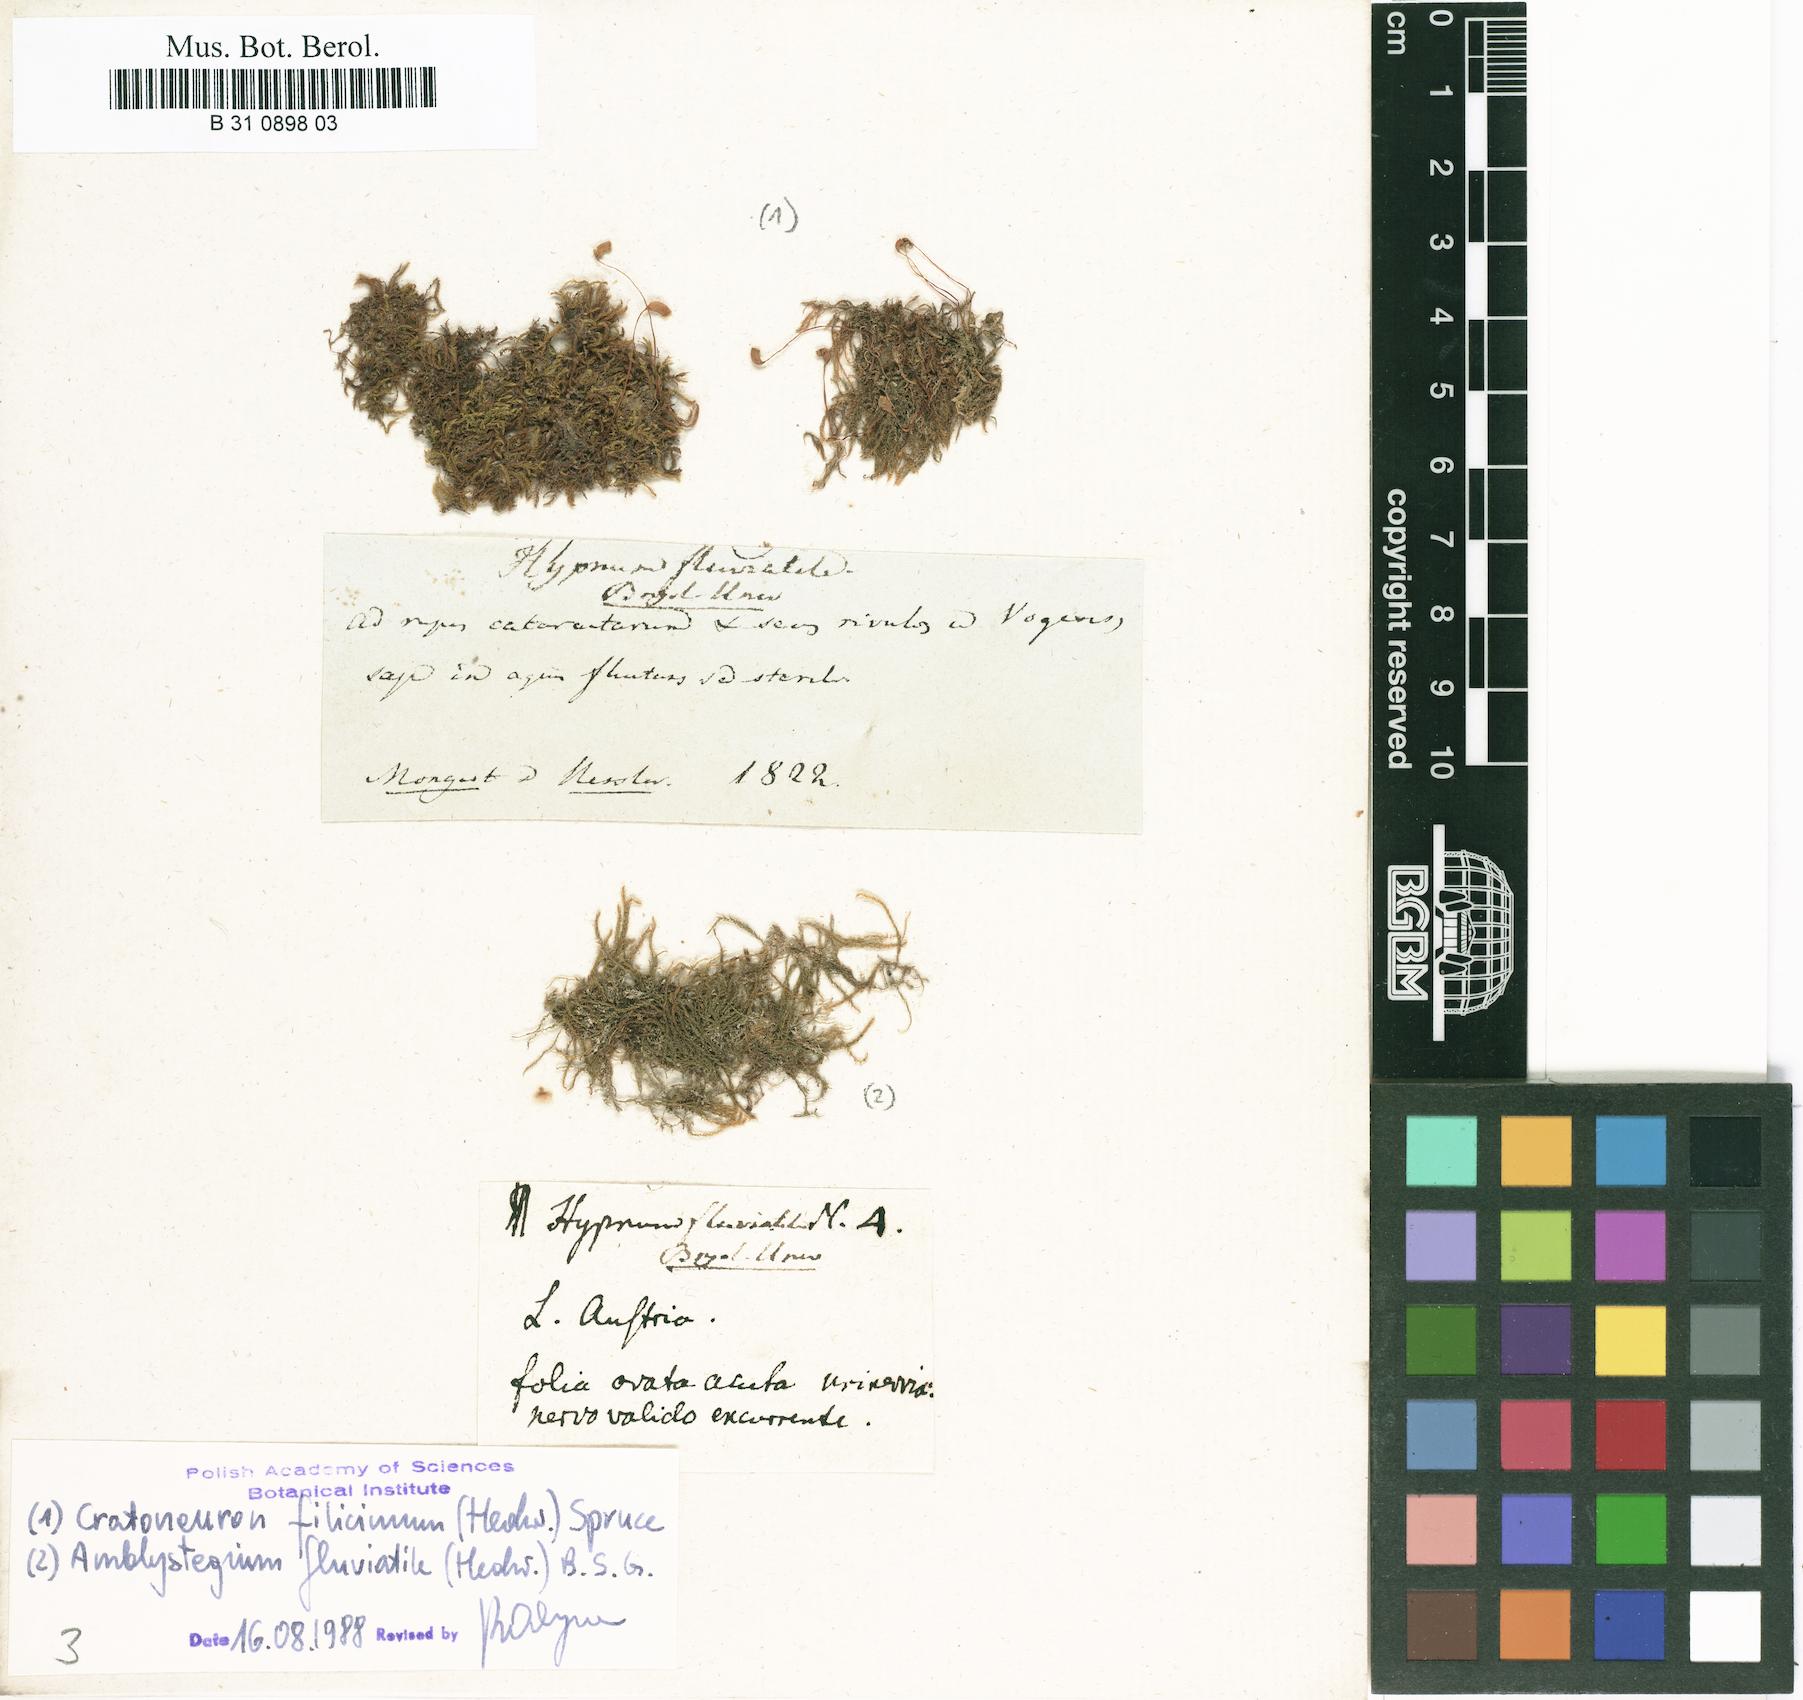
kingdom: Plantae
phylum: Bryophyta
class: Bryopsida
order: Hypnales
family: Amblystegiaceae
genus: Hygroamblystegium
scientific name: Hygroamblystegium fluviatile
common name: Brook-side feather-moss
